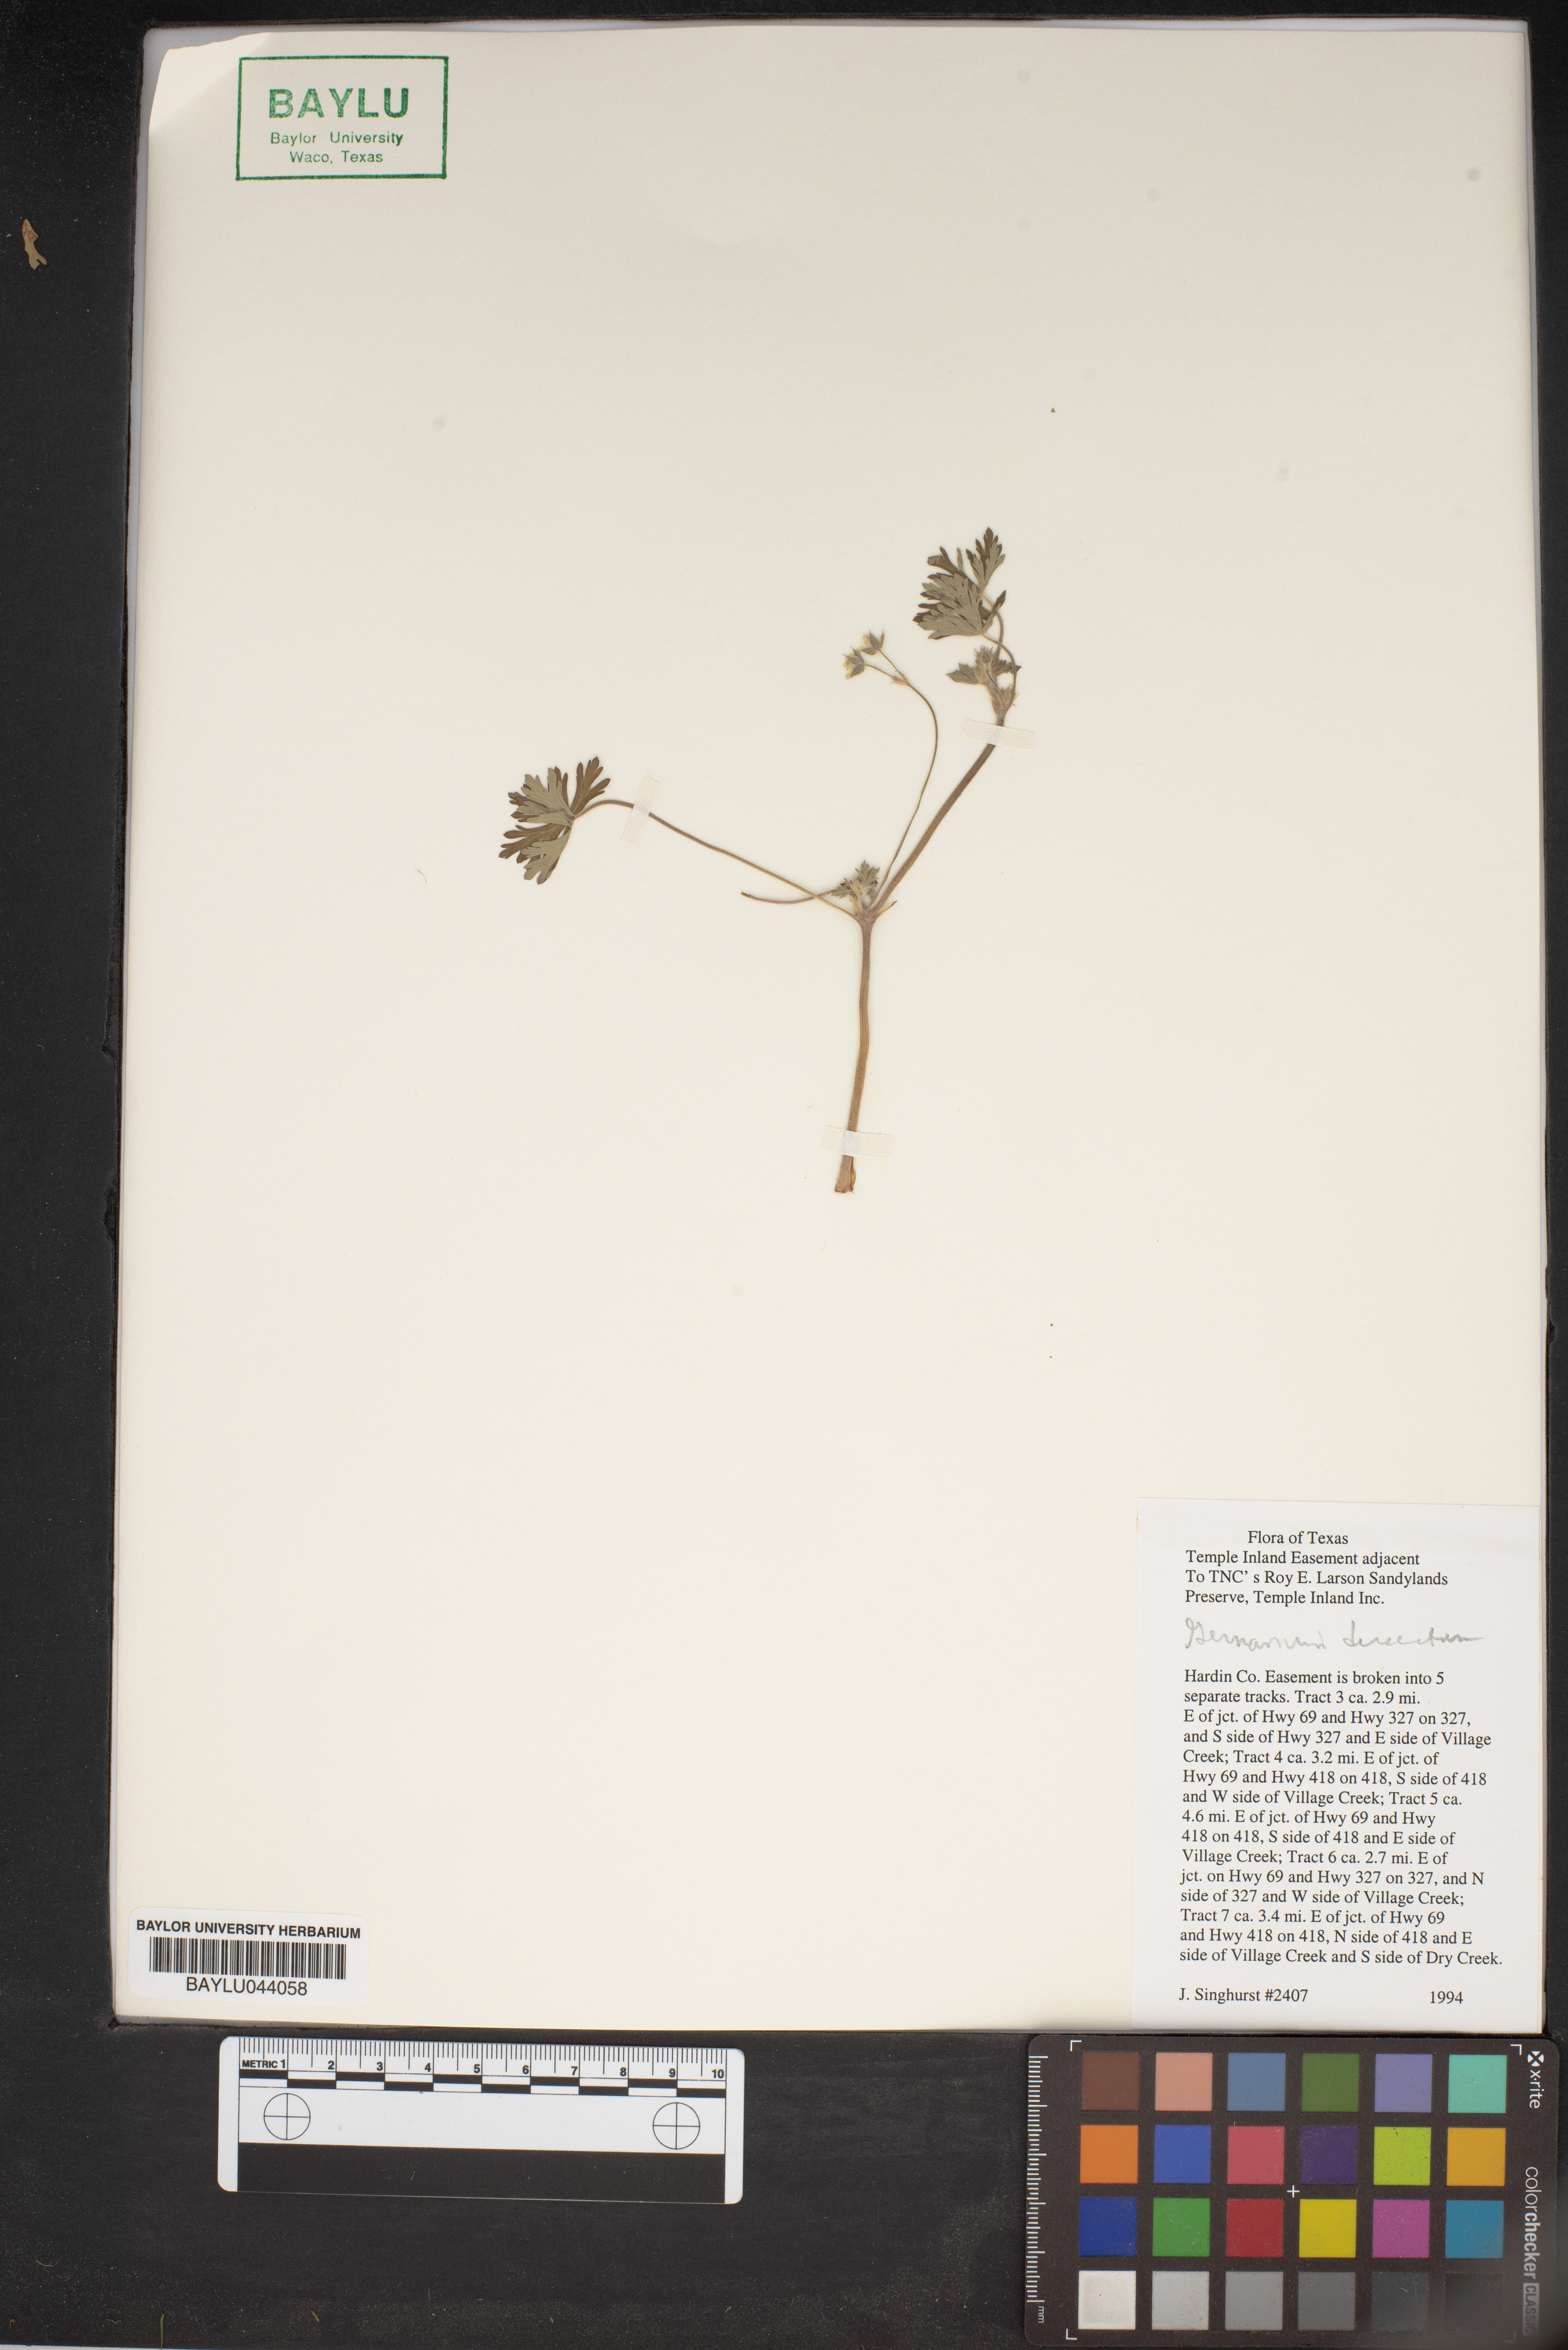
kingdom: Plantae
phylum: Tracheophyta
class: Magnoliopsida
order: Geraniales
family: Geraniaceae
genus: Geranium
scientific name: Geranium dissectum
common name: Cut-leaved crane's-bill
